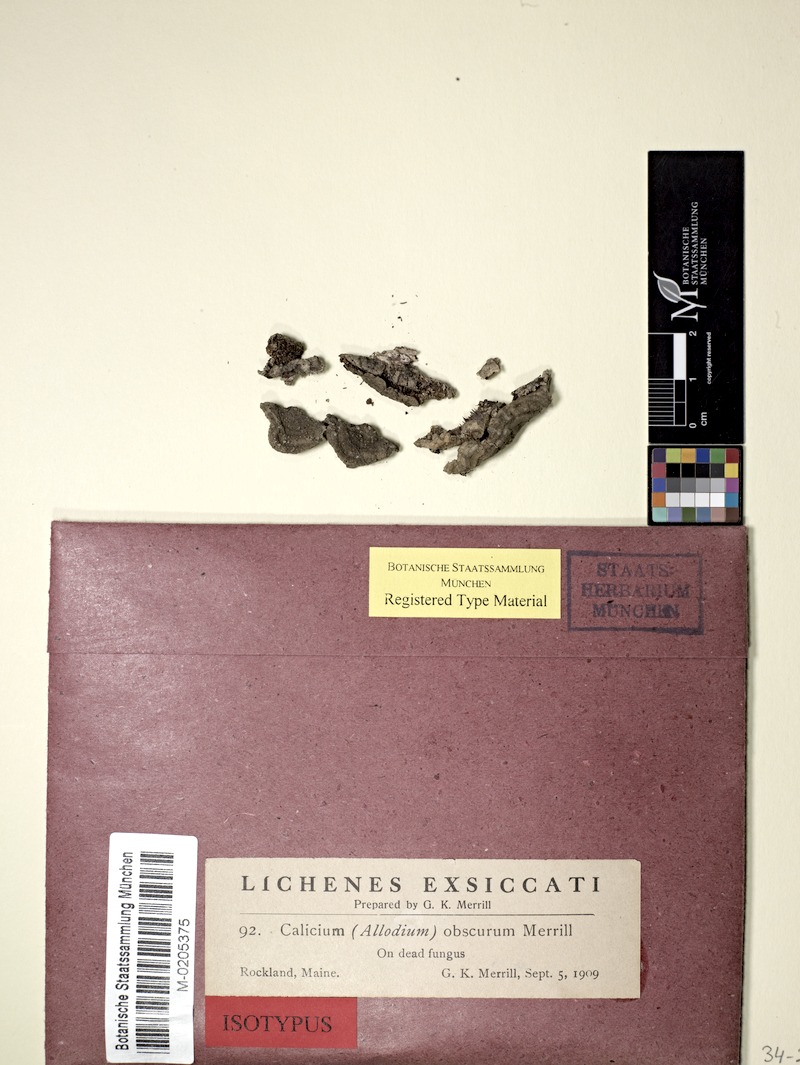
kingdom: Fungi
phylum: Ascomycota
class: Coniocybomycetes
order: Coniocybales
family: Coniocybaceae
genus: Chaenotheca
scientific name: Chaenotheca obscura
